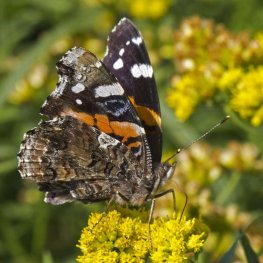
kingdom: Animalia
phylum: Arthropoda
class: Insecta
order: Lepidoptera
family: Nymphalidae
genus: Vanessa
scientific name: Vanessa atalanta
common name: Red Admiral
